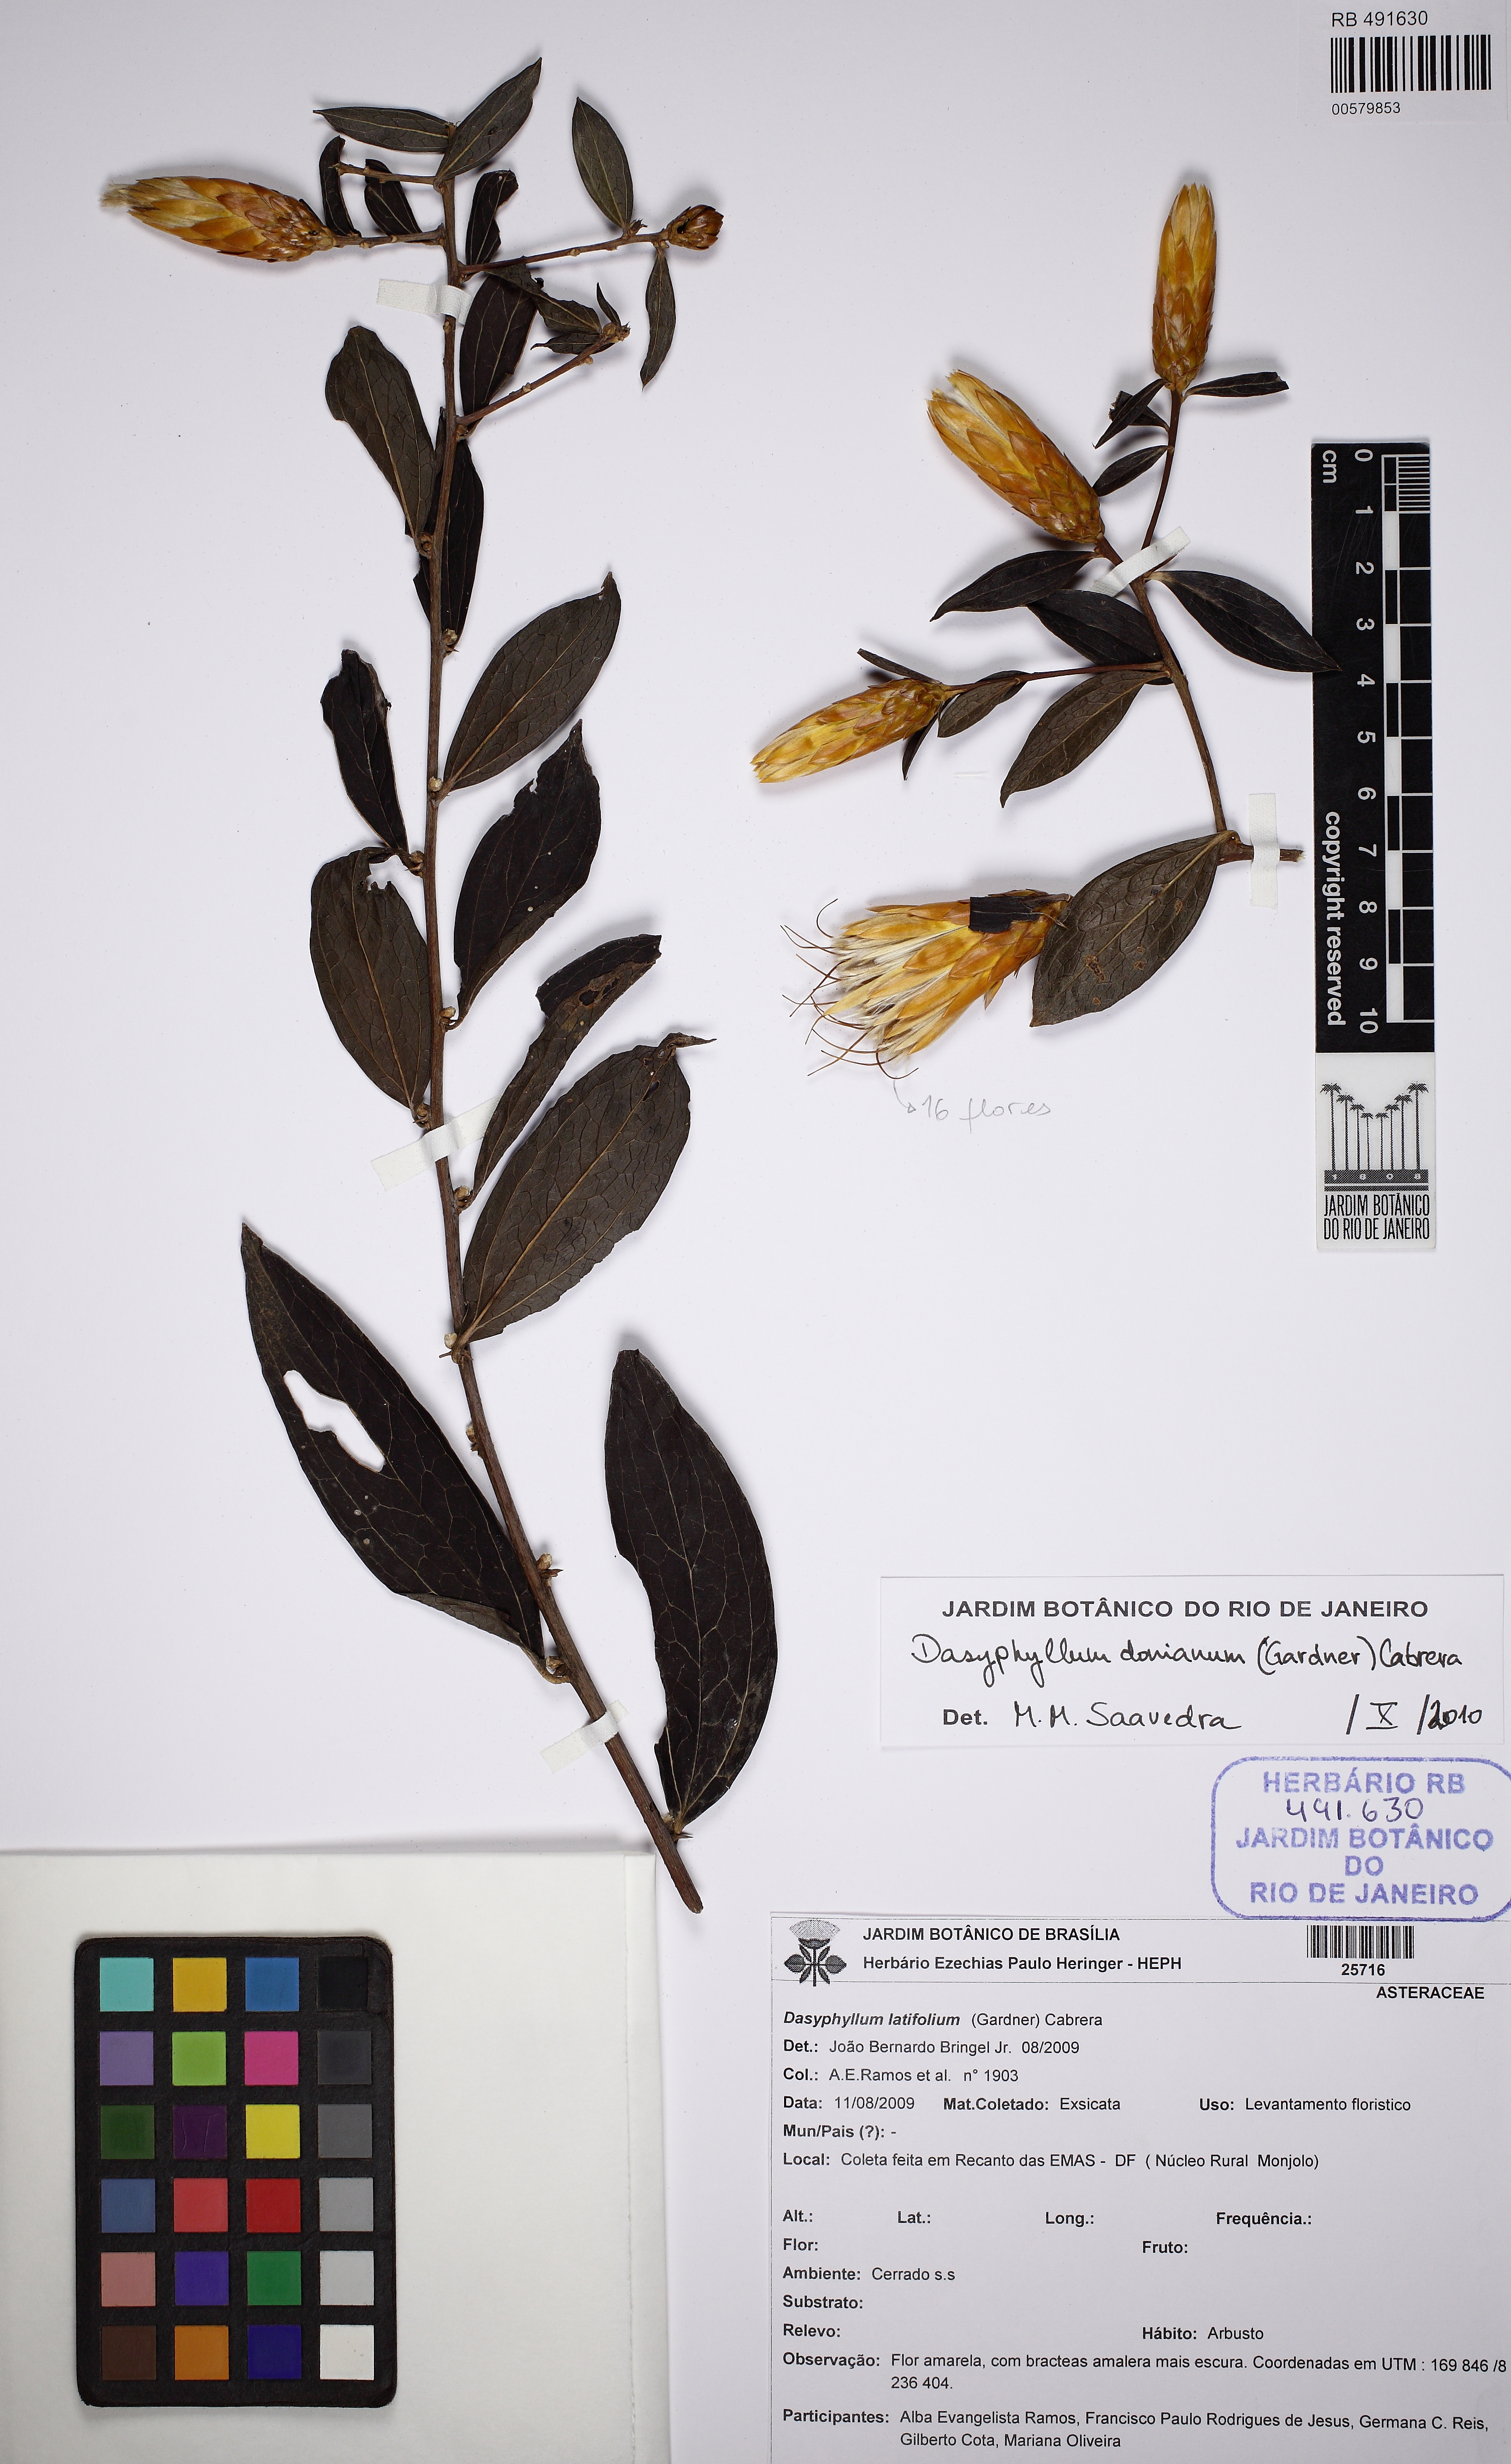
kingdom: Plantae
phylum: Tracheophyta
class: Magnoliopsida
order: Asterales
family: Asteraceae
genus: Dasyphyllum
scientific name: Dasyphyllum donianum
